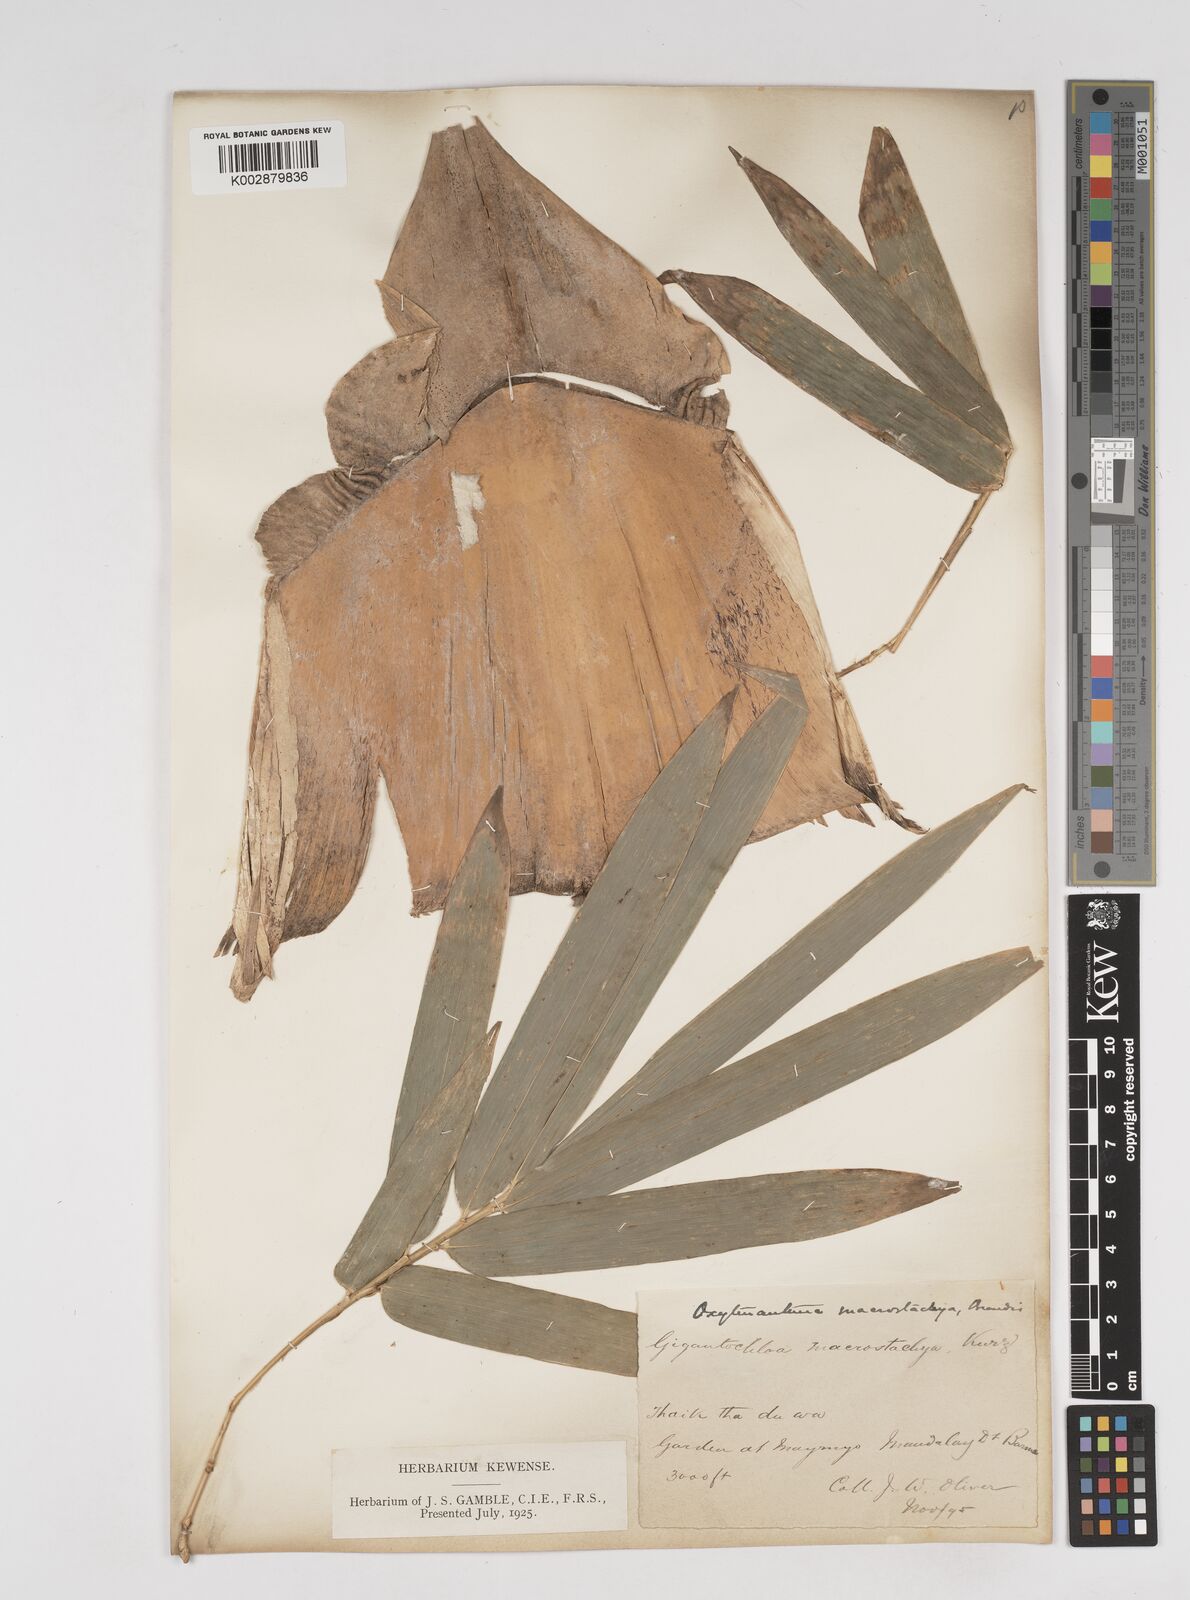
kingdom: Plantae
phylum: Tracheophyta
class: Liliopsida
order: Poales
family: Poaceae
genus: Gigantochloa
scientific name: Gigantochloa macrostachya
